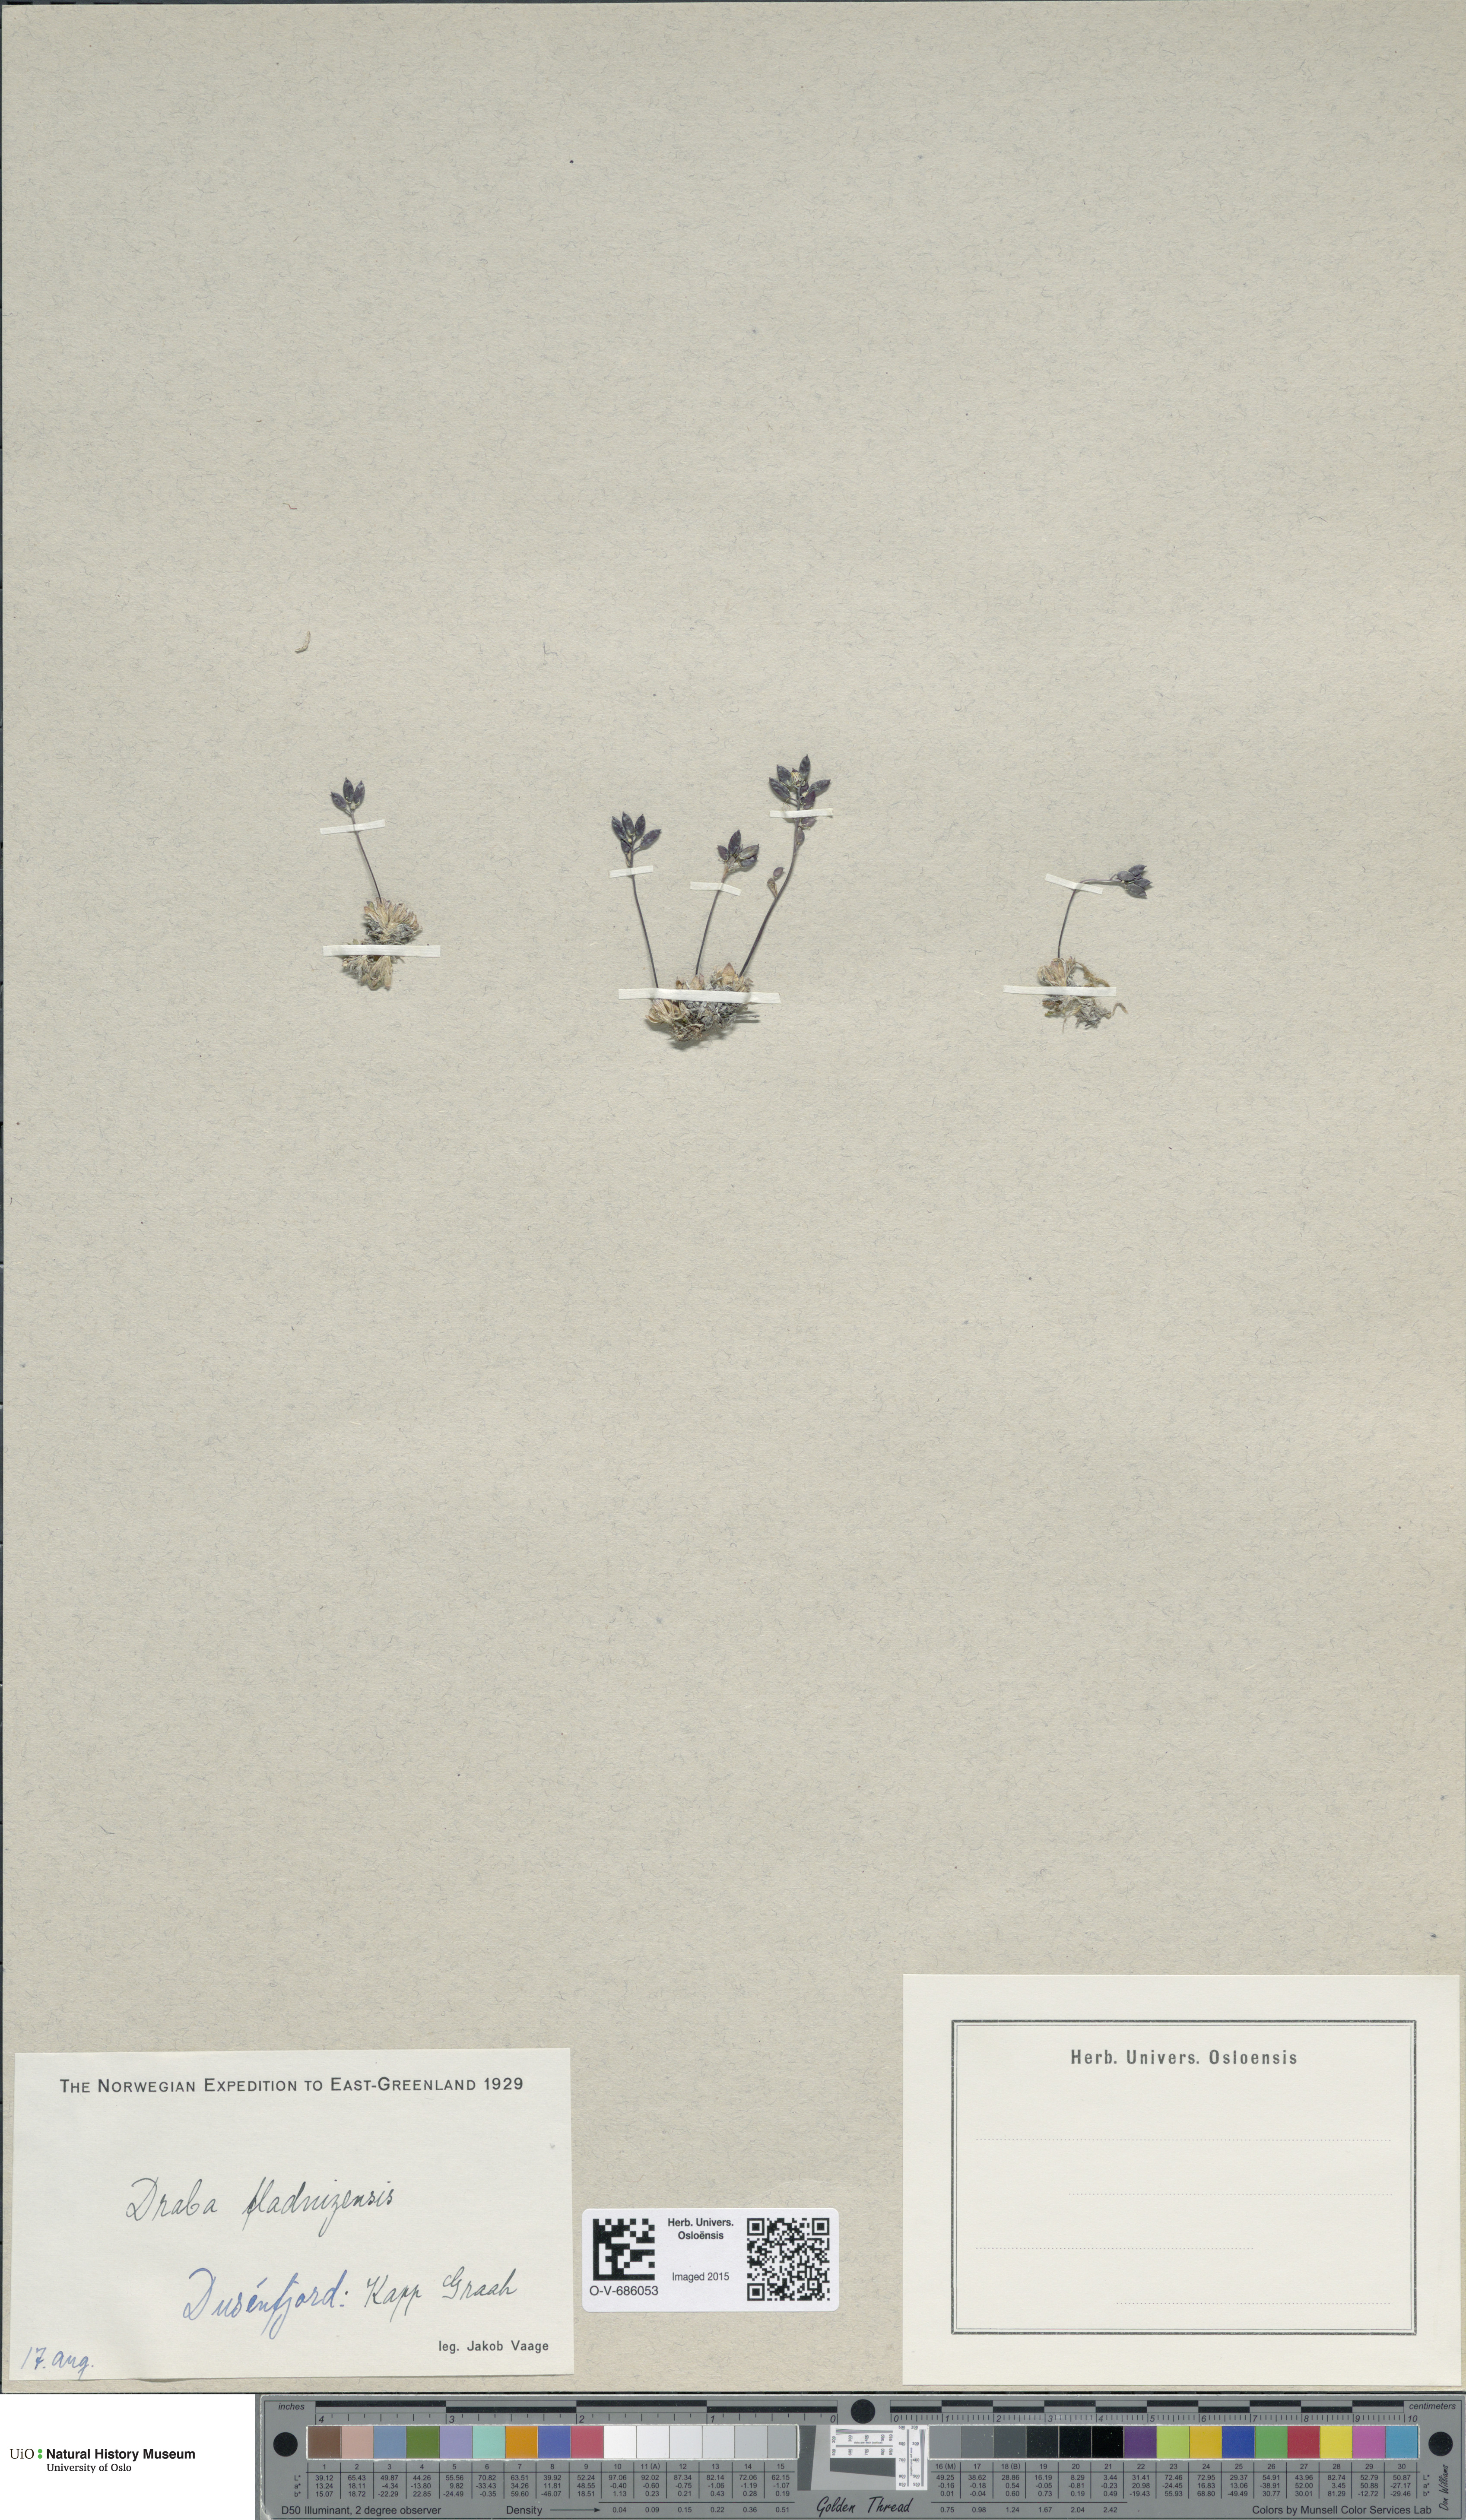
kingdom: Plantae
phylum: Tracheophyta
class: Magnoliopsida
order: Brassicales
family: Brassicaceae
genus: Draba
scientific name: Draba fladnizensis
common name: Austrian draba
